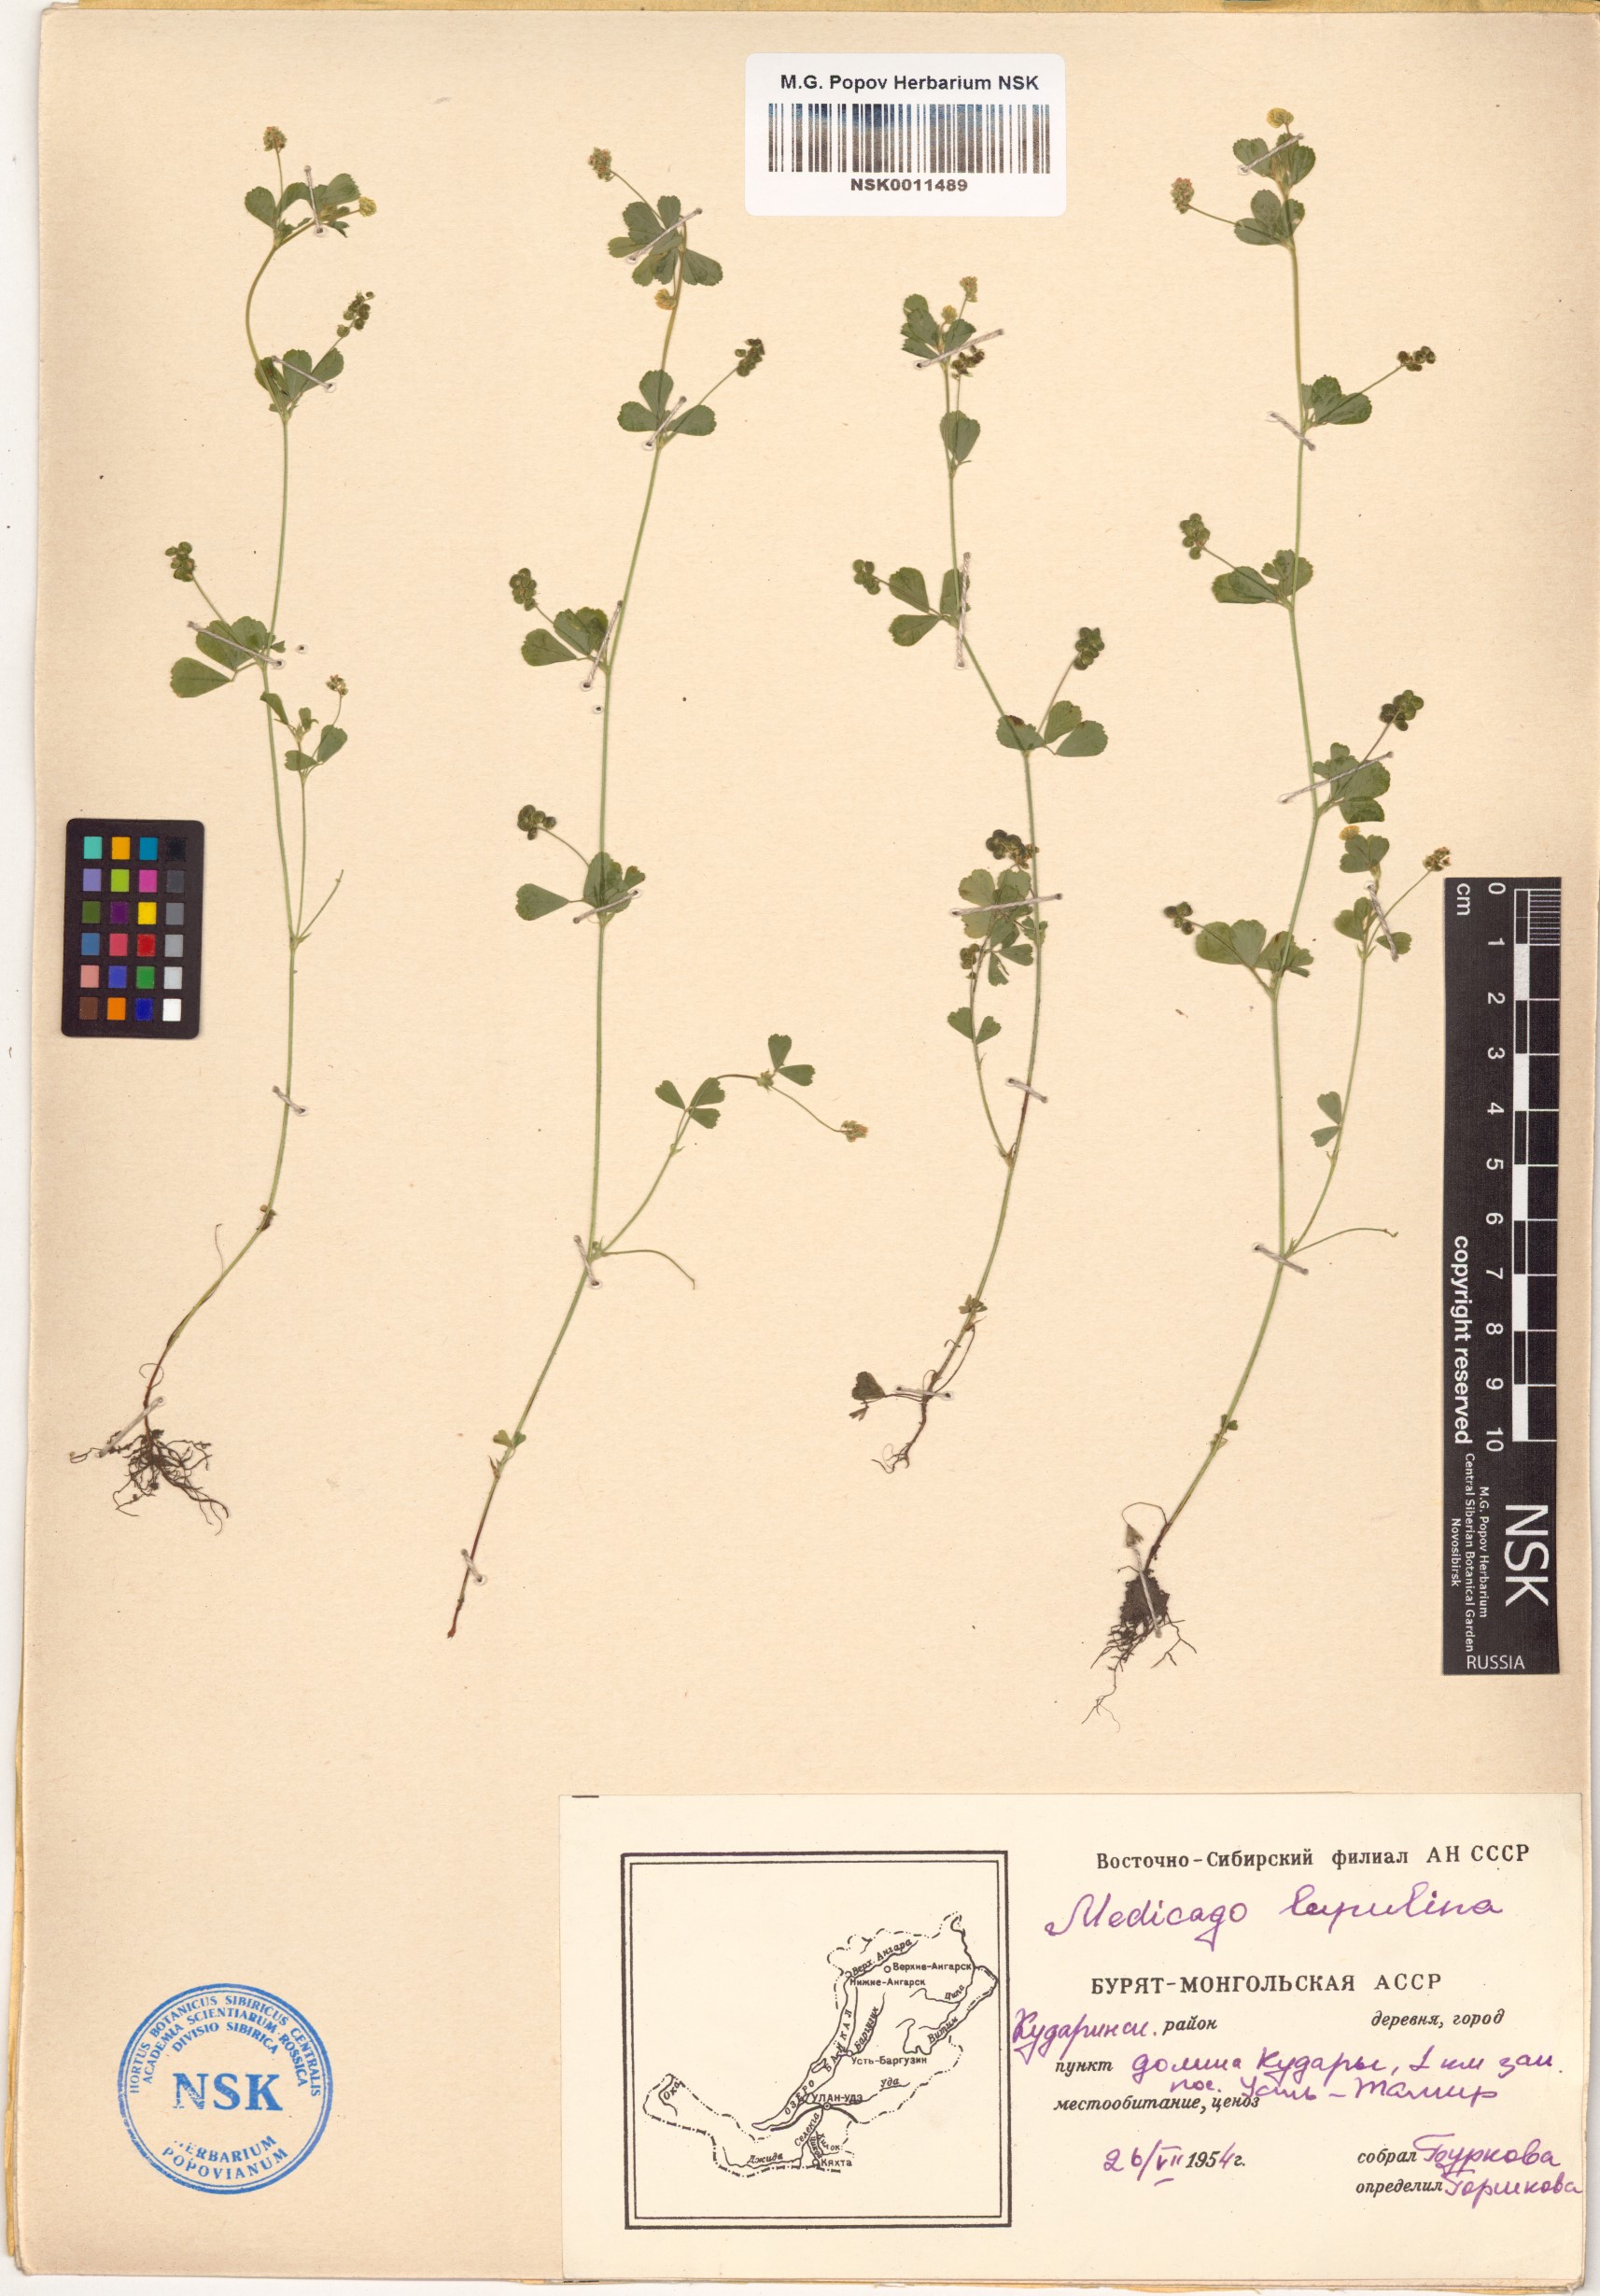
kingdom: Plantae
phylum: Tracheophyta
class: Magnoliopsida
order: Fabales
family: Fabaceae
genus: Medicago
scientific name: Medicago lupulina
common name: Black medick
